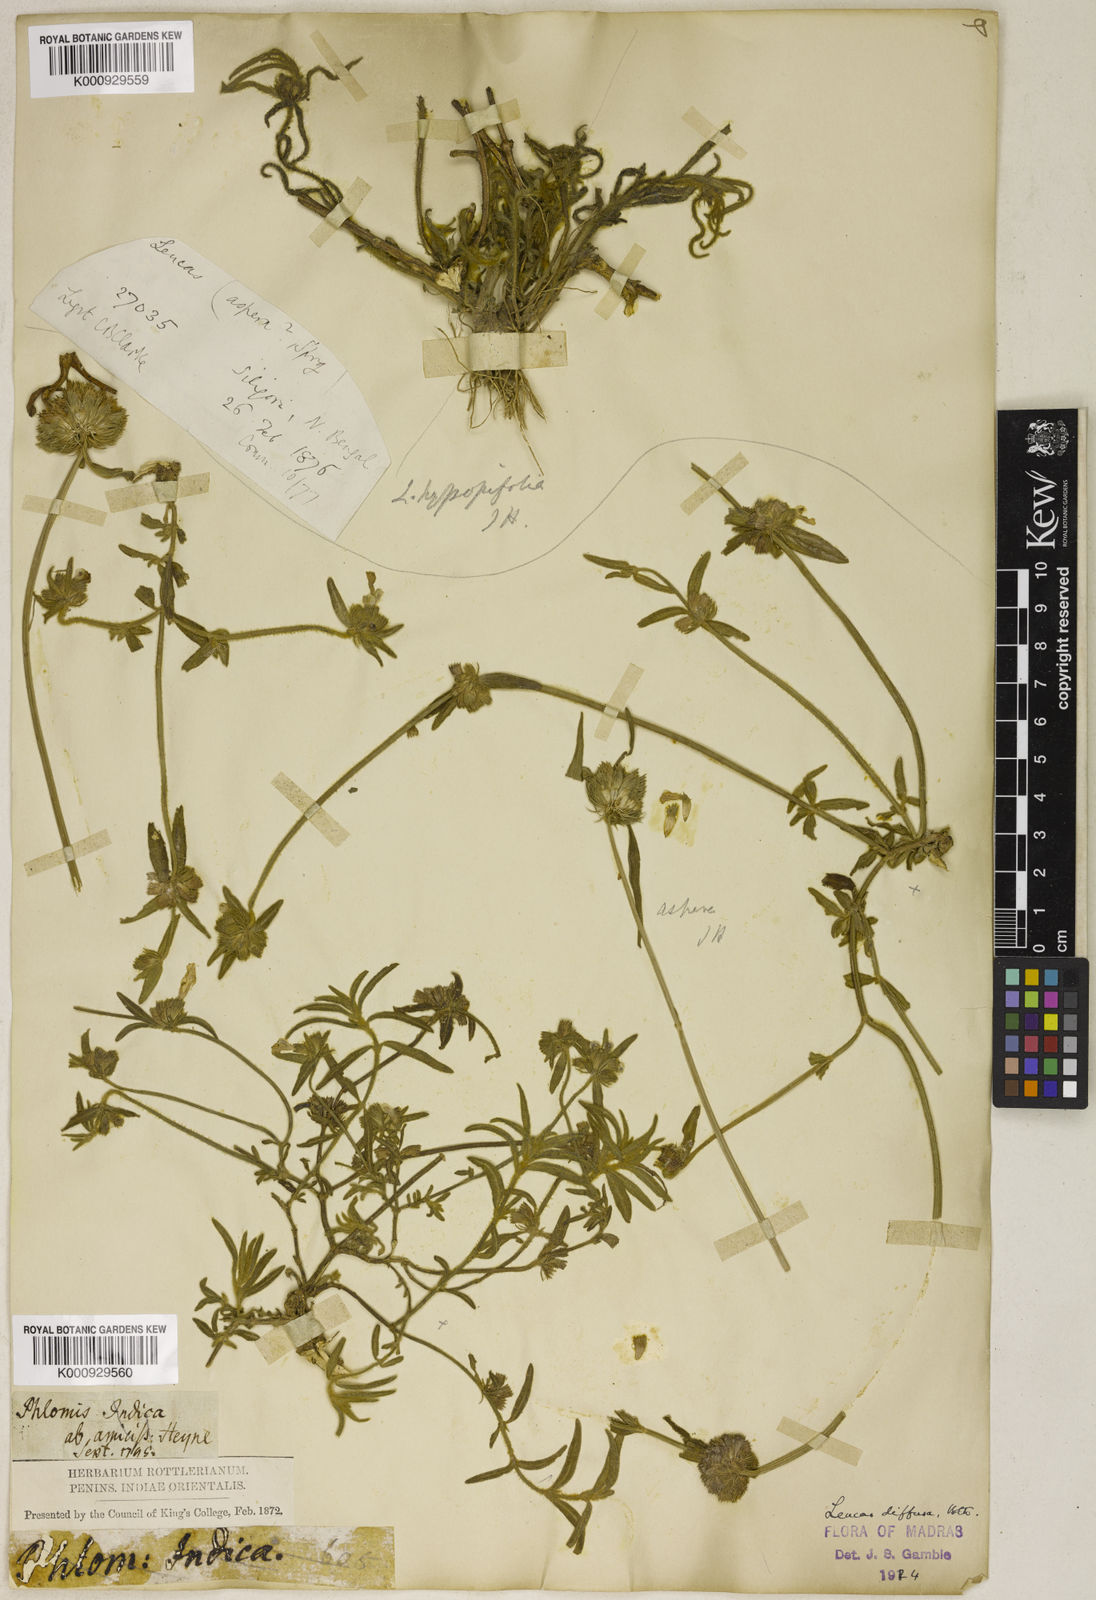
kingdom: Plantae
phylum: Tracheophyta
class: Magnoliopsida
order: Lamiales
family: Lamiaceae
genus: Leucas
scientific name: Leucas diffusa
